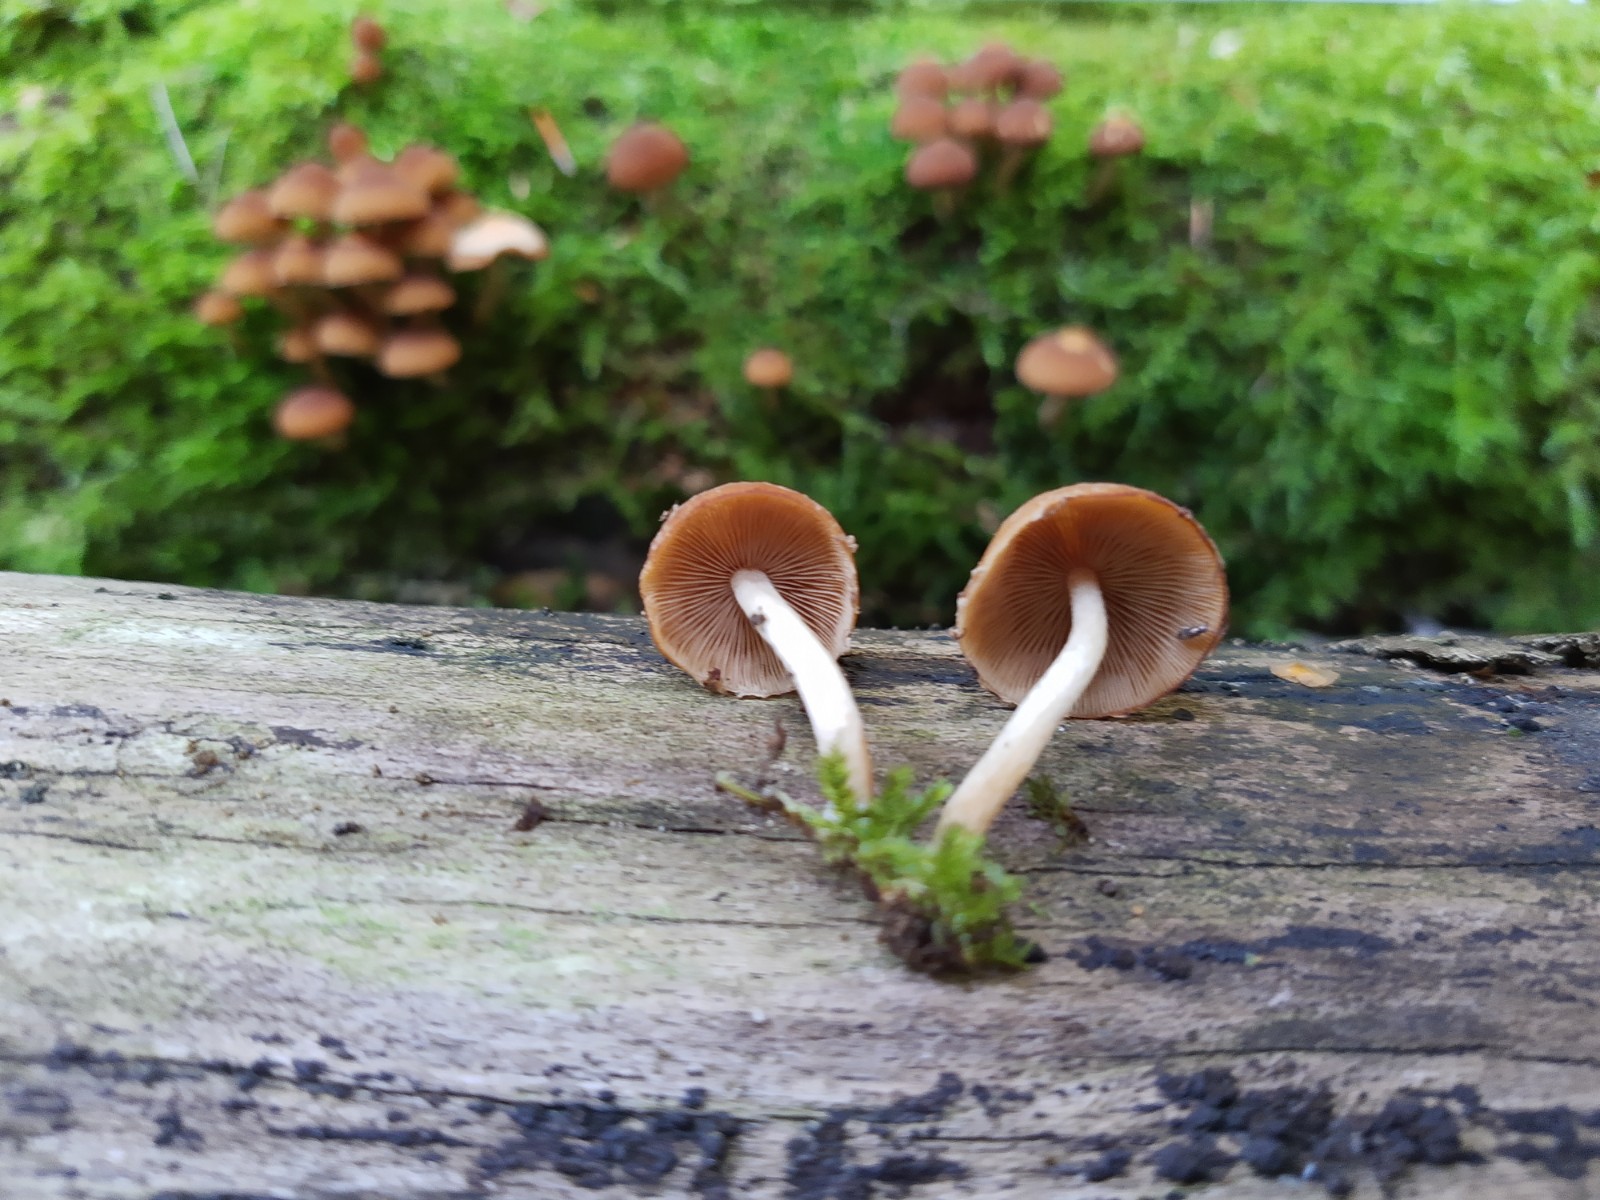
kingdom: Fungi
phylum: Basidiomycota
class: Agaricomycetes
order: Agaricales
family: Psathyrellaceae
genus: Psathyrella
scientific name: Psathyrella piluliformis
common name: lysstokket mørkhat
